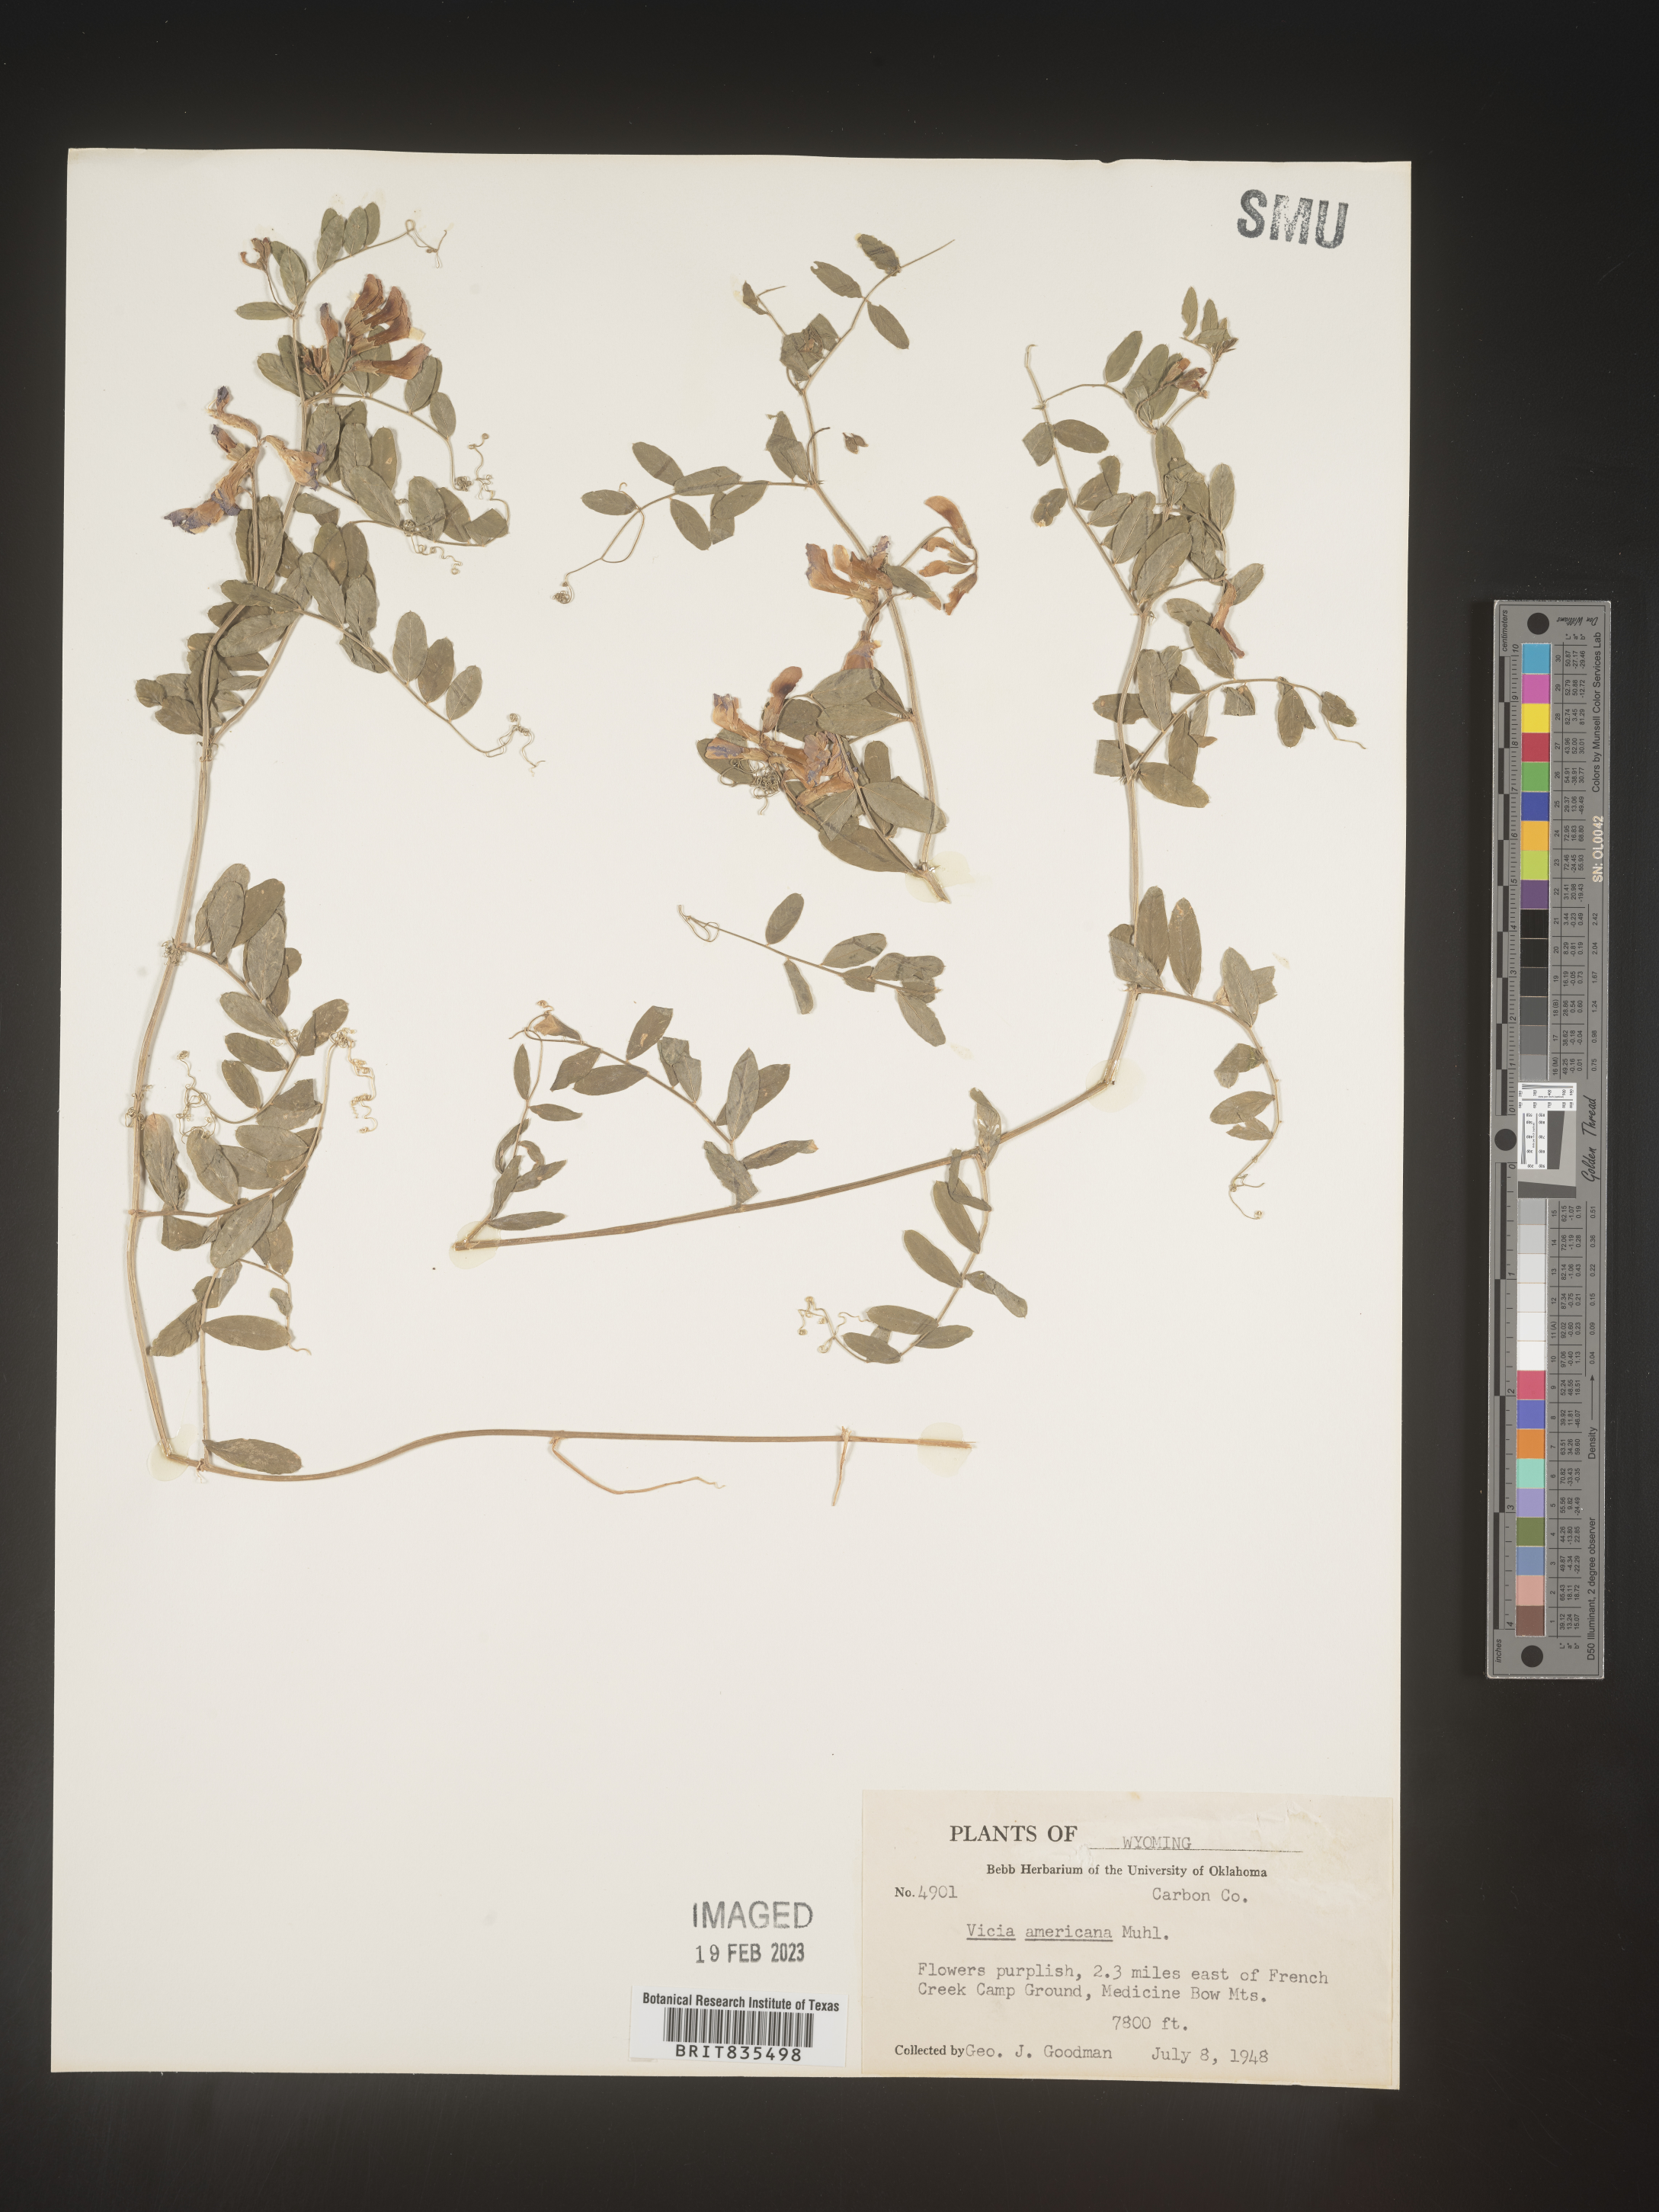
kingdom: Plantae
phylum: Tracheophyta
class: Magnoliopsida
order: Fabales
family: Fabaceae
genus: Vicia
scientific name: Vicia americana
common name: American vetch
